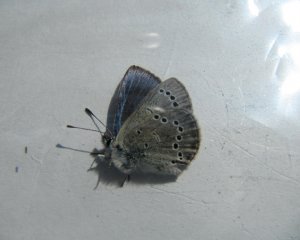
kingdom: Animalia
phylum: Arthropoda
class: Insecta
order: Lepidoptera
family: Lycaenidae
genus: Glaucopsyche
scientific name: Glaucopsyche lygdamus
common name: Silvery Blue
